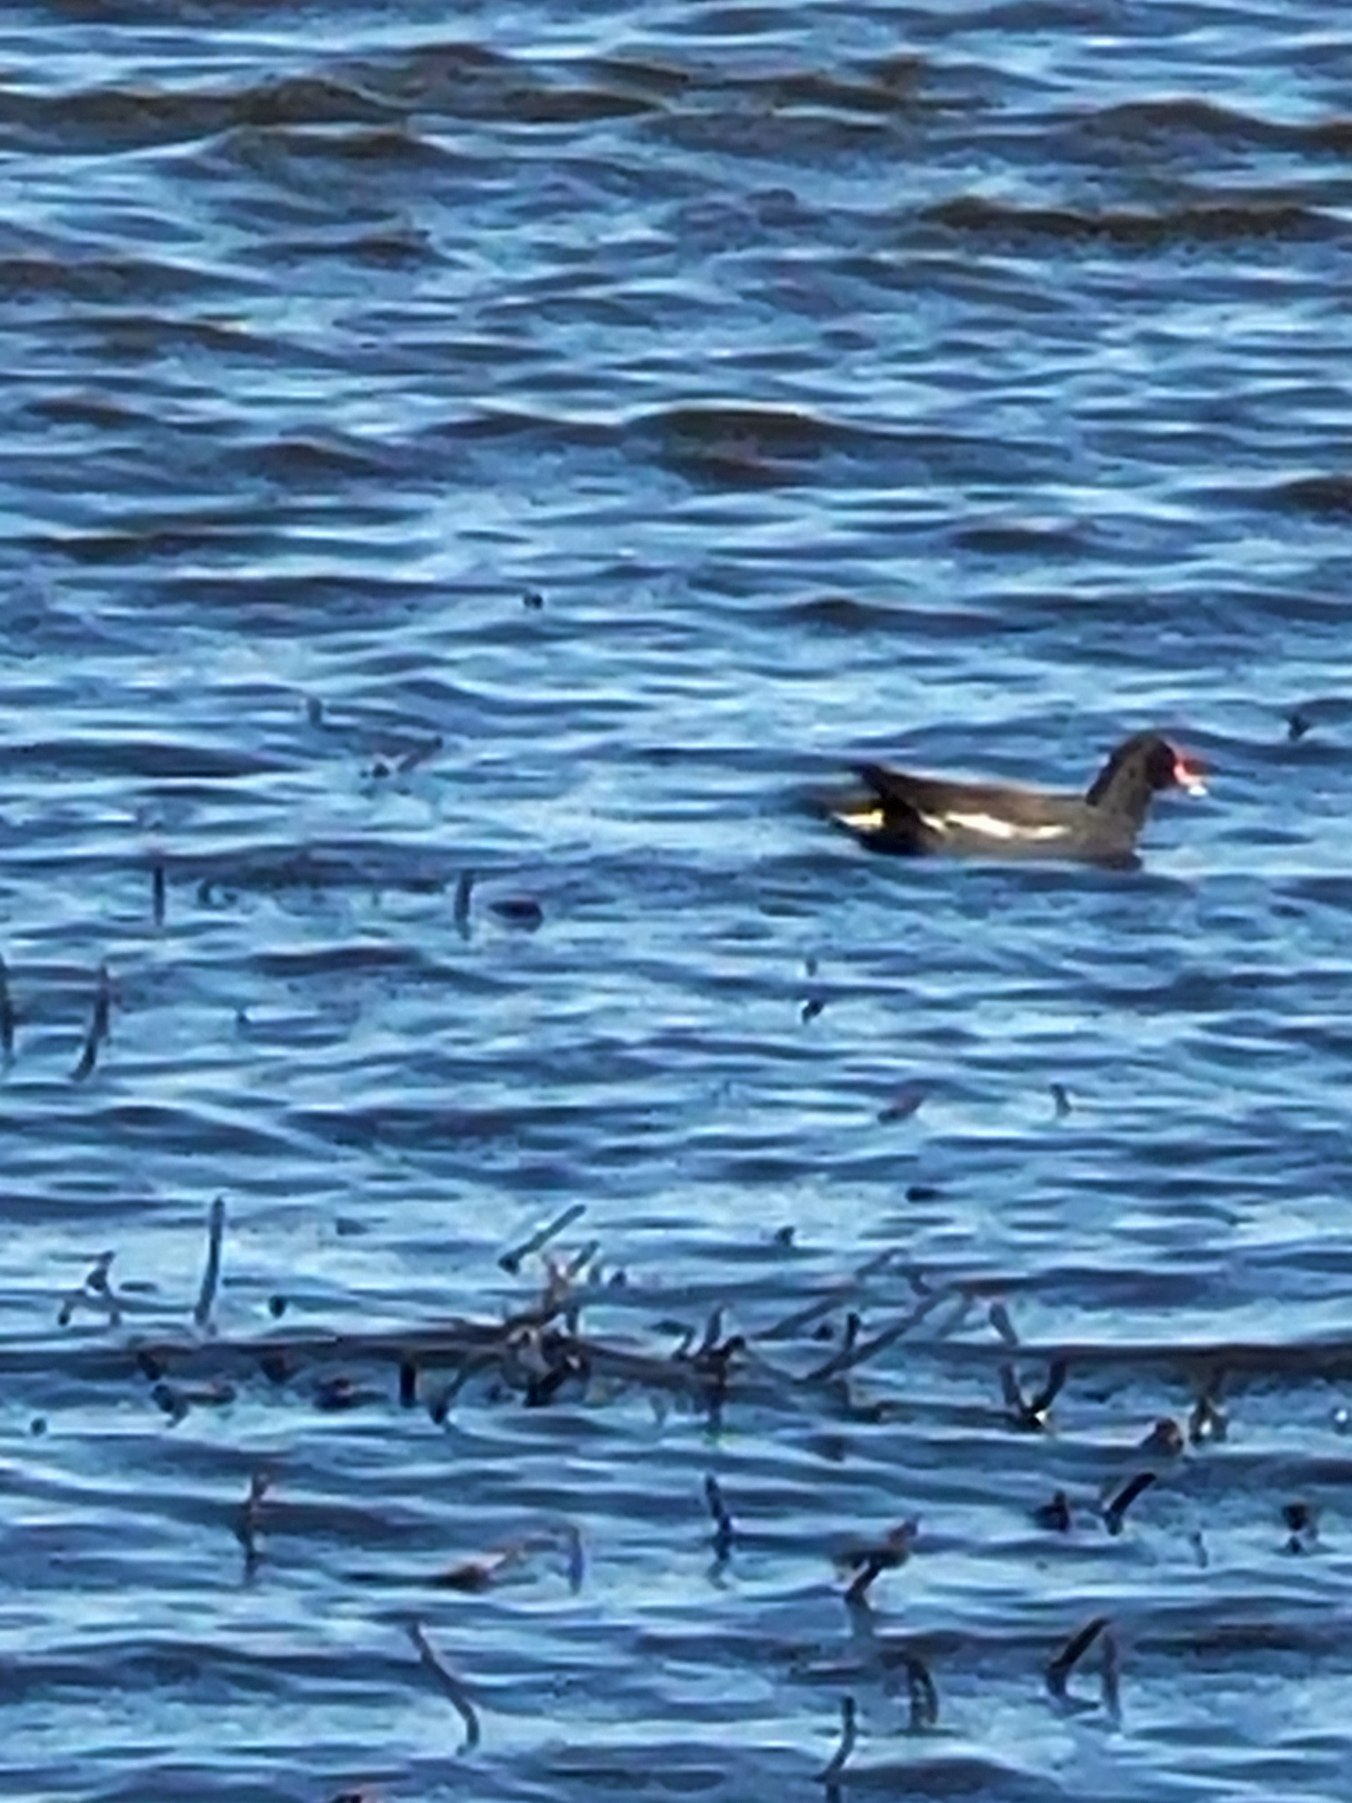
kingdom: Animalia
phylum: Chordata
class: Aves
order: Gruiformes
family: Rallidae
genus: Gallinula
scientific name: Gallinula chloropus
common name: Grønbenet rørhøne
